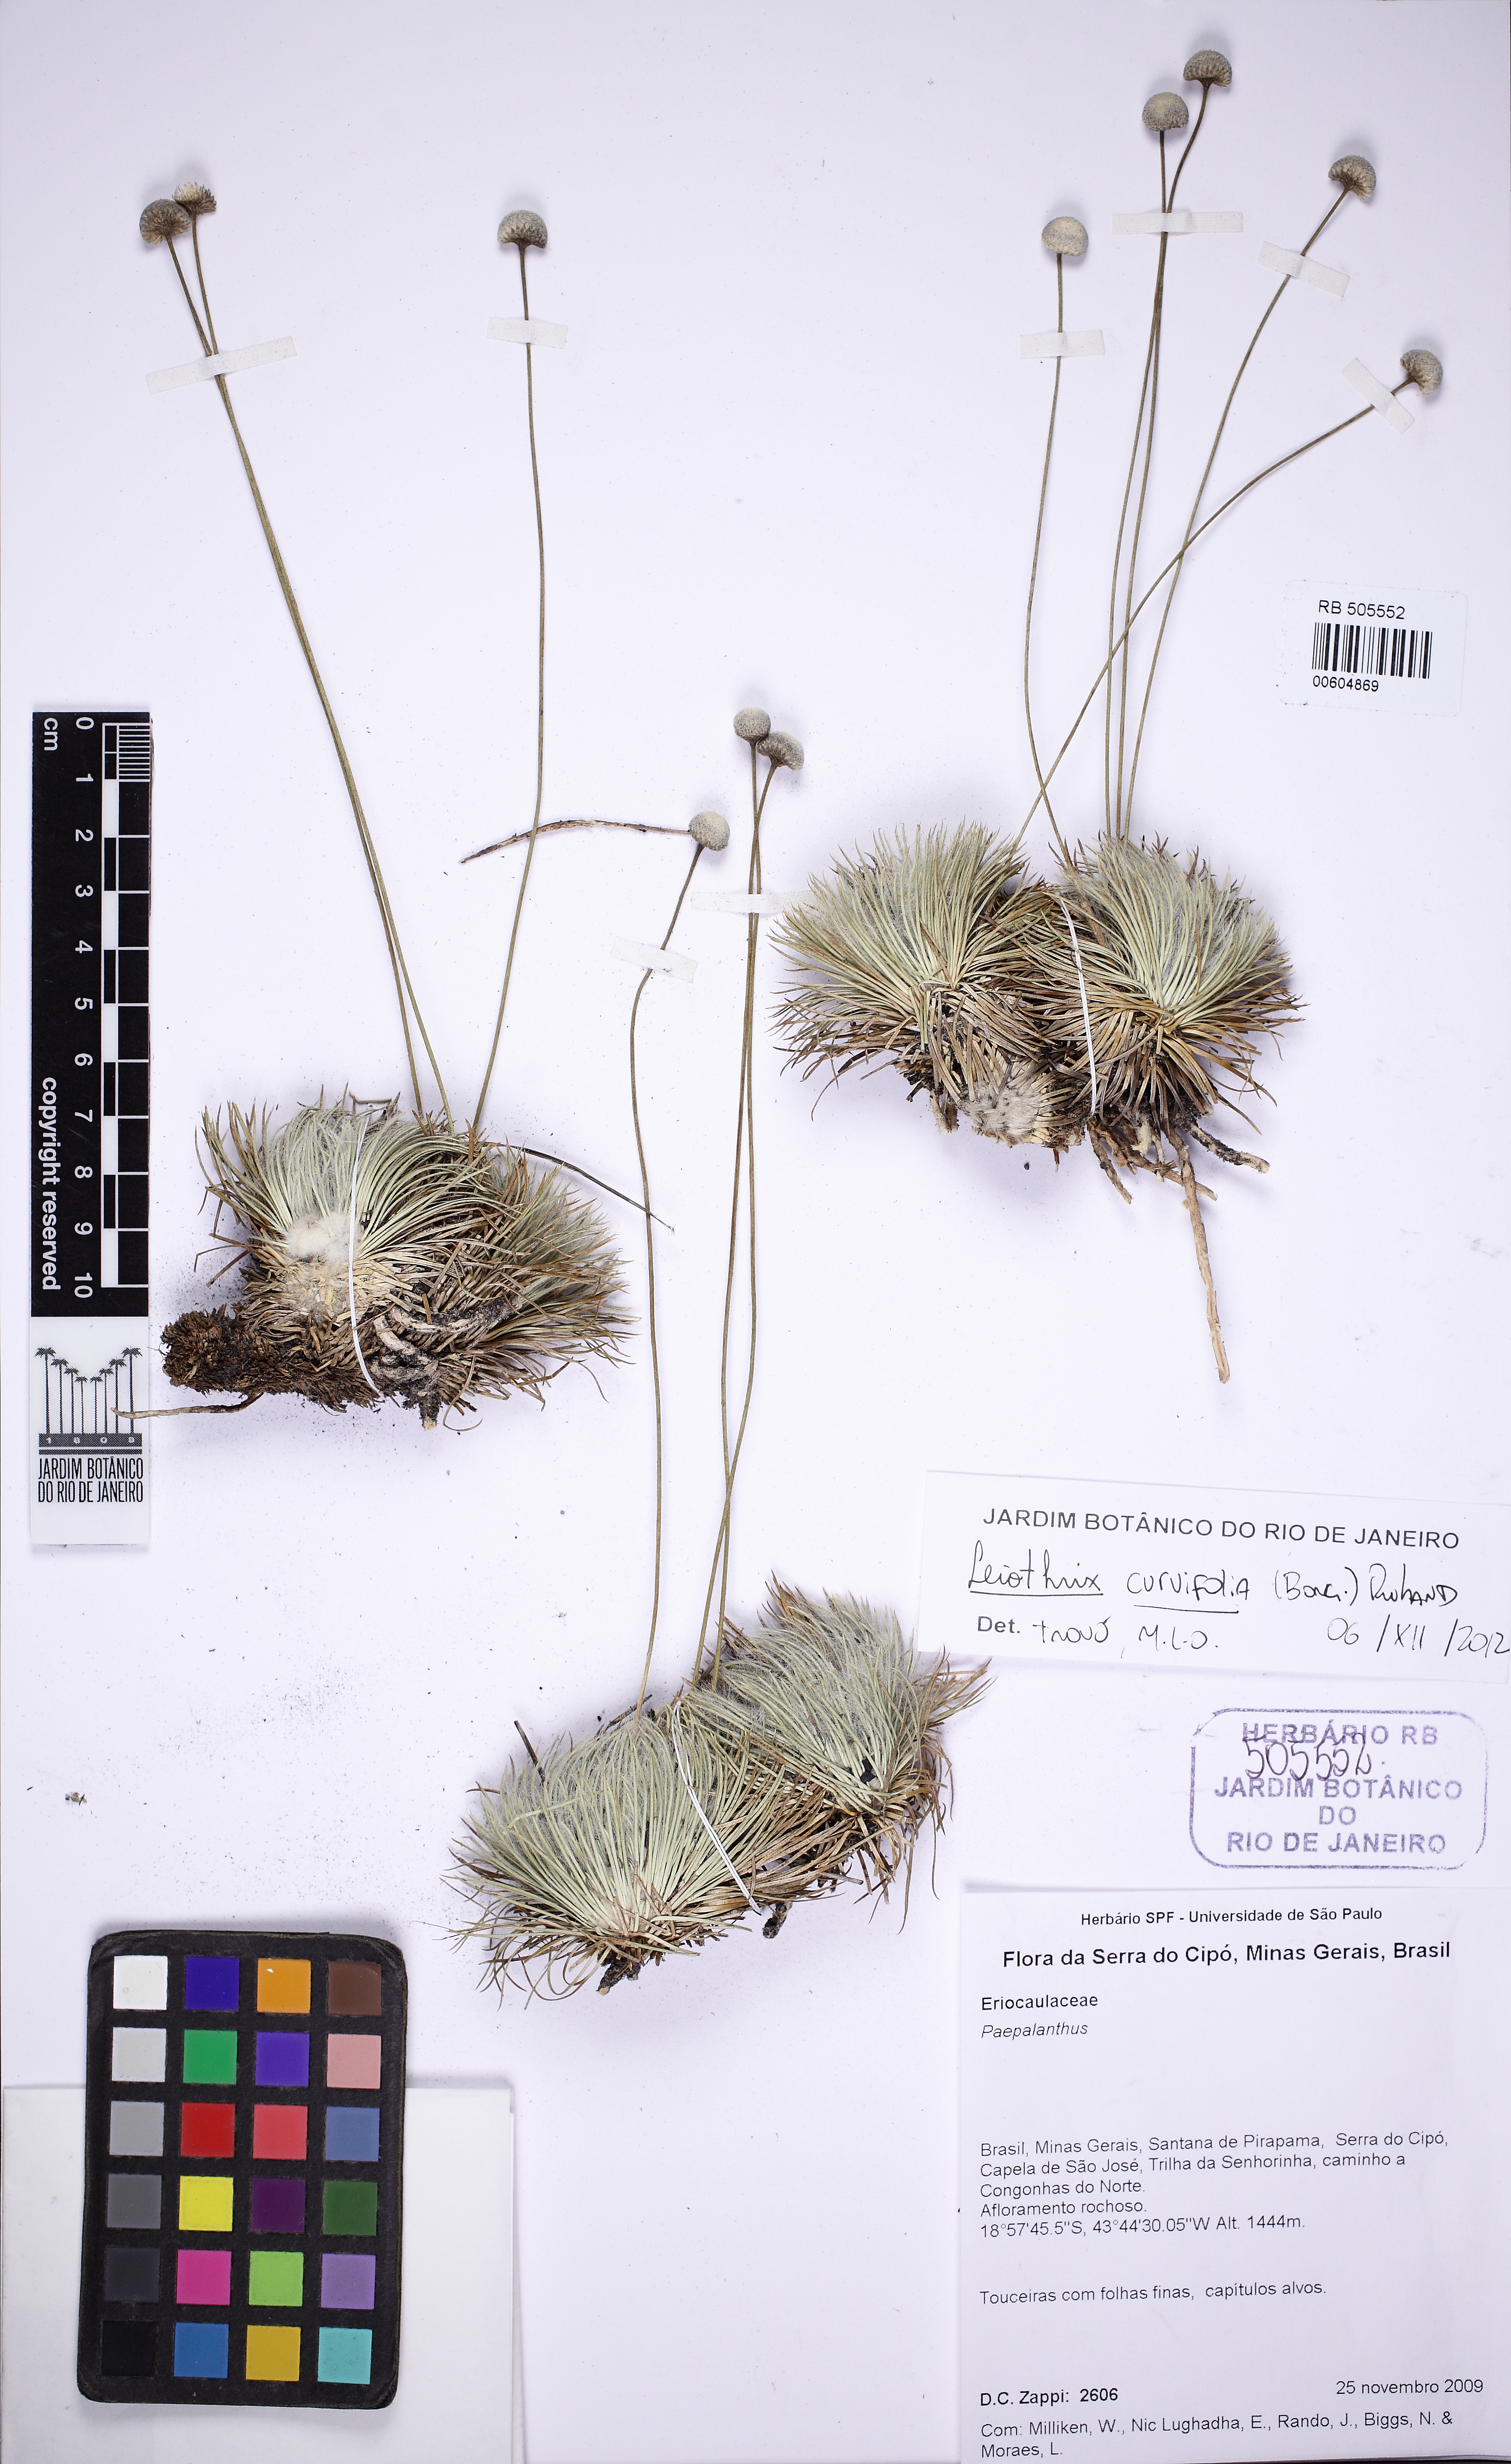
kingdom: Plantae
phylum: Tracheophyta
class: Liliopsida
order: Poales
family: Eriocaulaceae
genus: Leiothrix
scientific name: Leiothrix curvifolia
